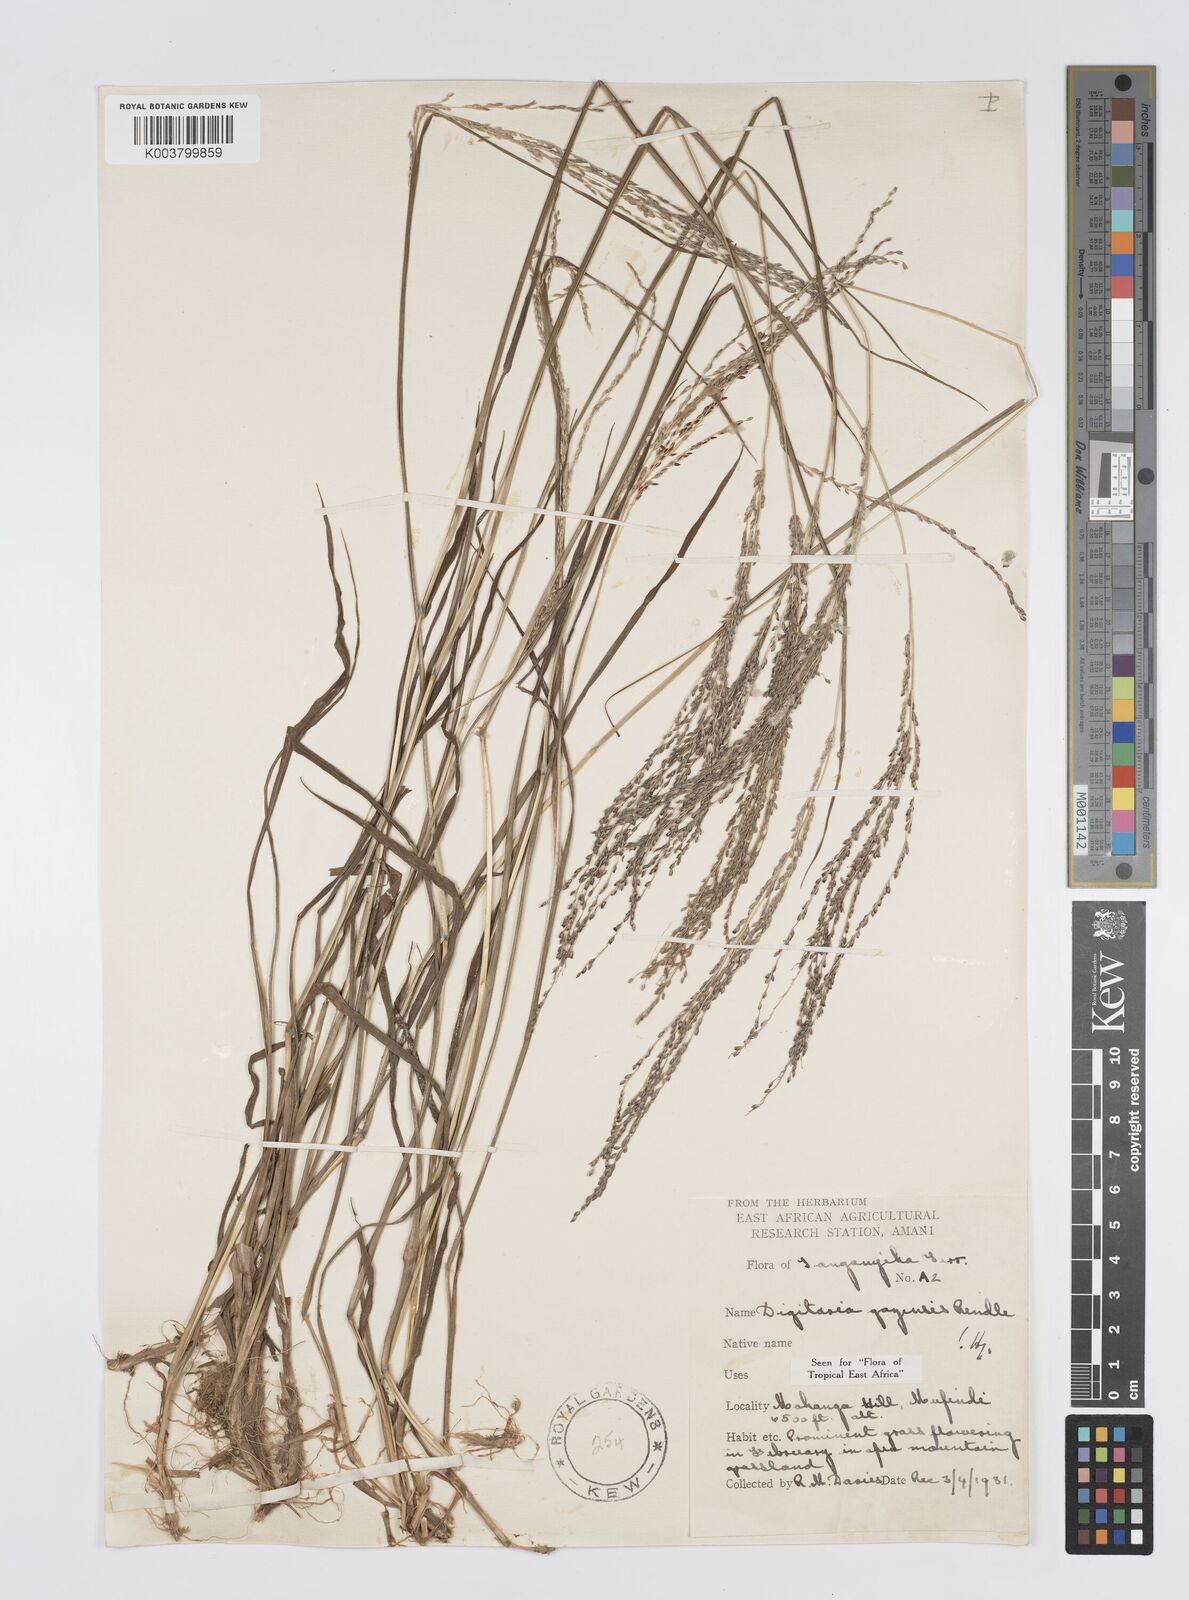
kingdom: Plantae
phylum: Tracheophyta
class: Liliopsida
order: Poales
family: Poaceae
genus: Digitaria
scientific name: Digitaria gazensis
